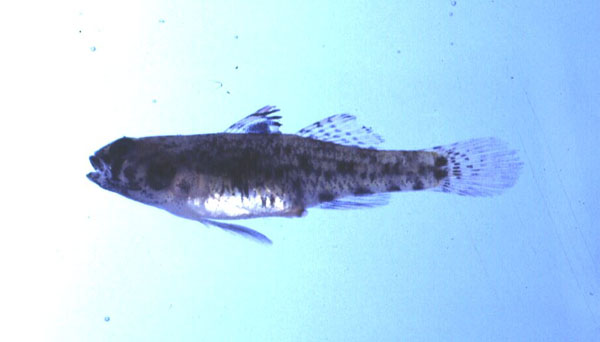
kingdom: Animalia
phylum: Chordata
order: Perciformes
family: Gobiidae
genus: Redigobius
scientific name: Redigobius bikolanus
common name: Bigmouth goby
